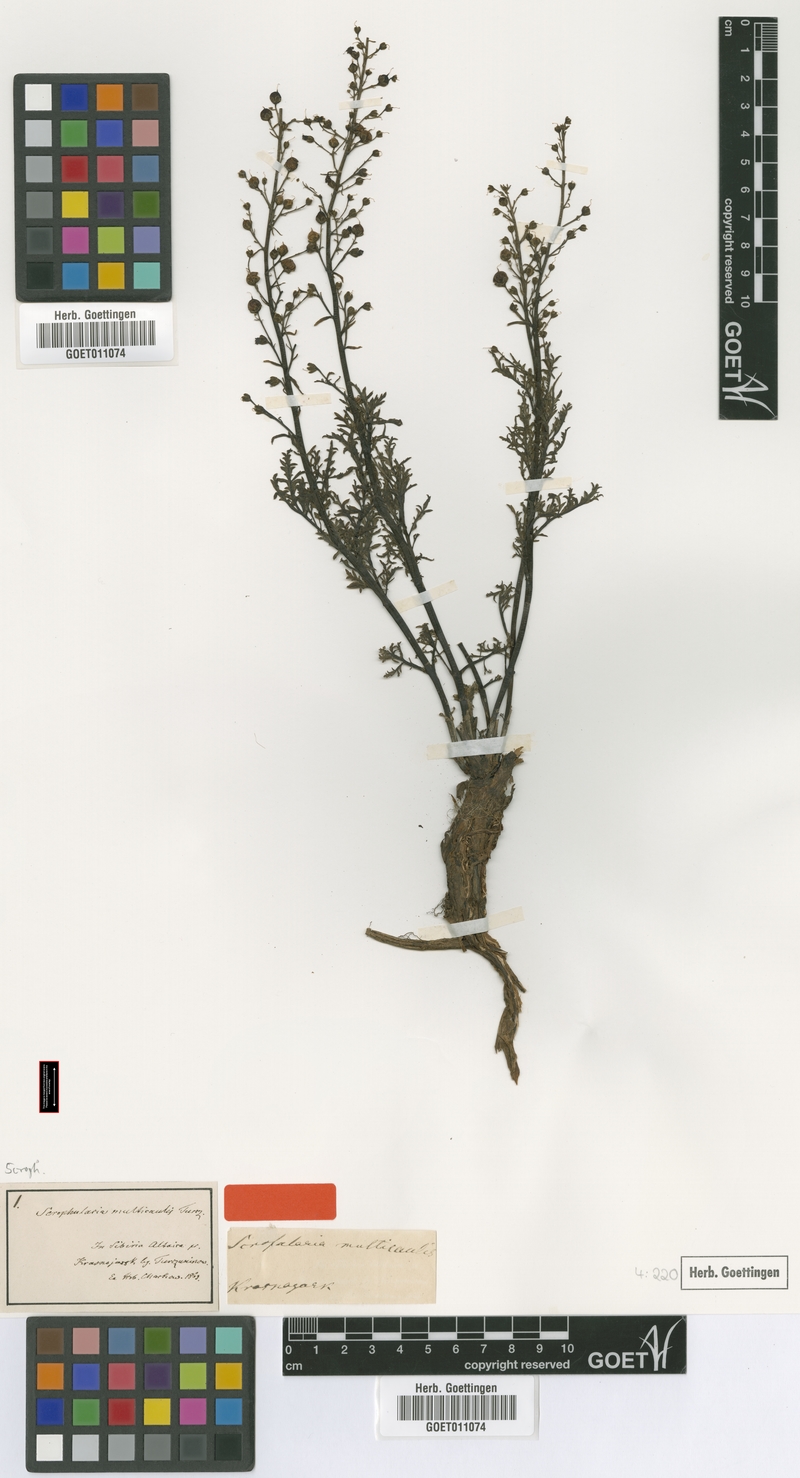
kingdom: Plantae
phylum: Tracheophyta
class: Magnoliopsida
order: Lamiales
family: Scrophulariaceae
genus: Scrophularia
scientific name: Scrophularia multicaulis
